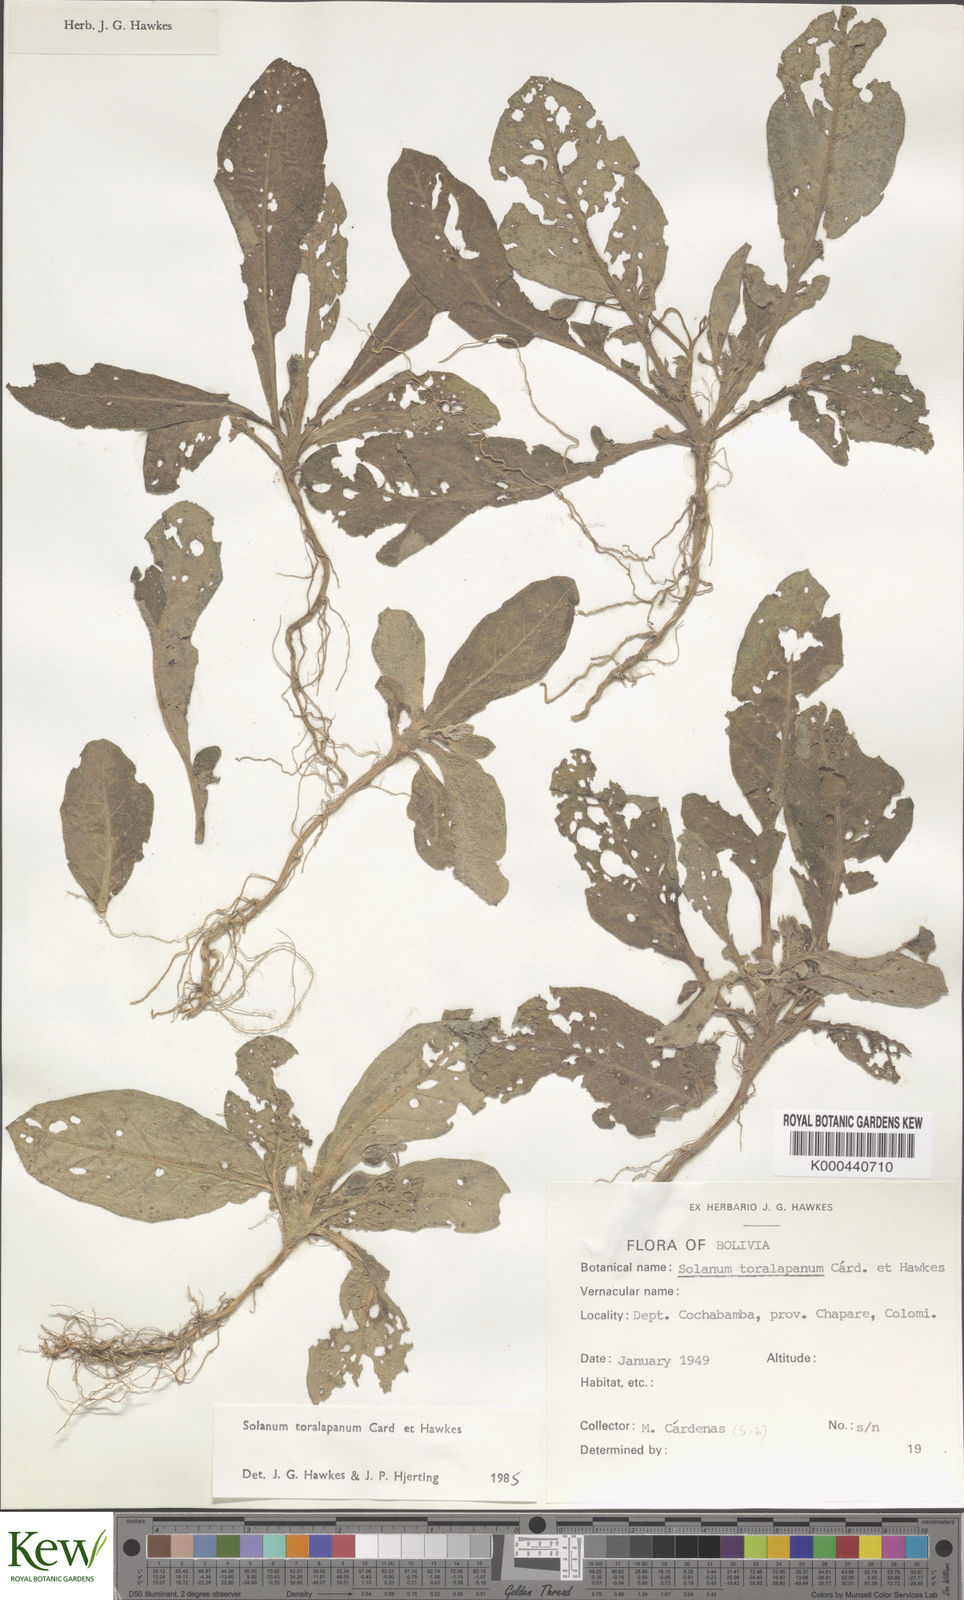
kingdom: Plantae
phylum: Tracheophyta
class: Magnoliopsida
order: Solanales
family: Solanaceae
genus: Solanum
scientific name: Solanum boliviense
